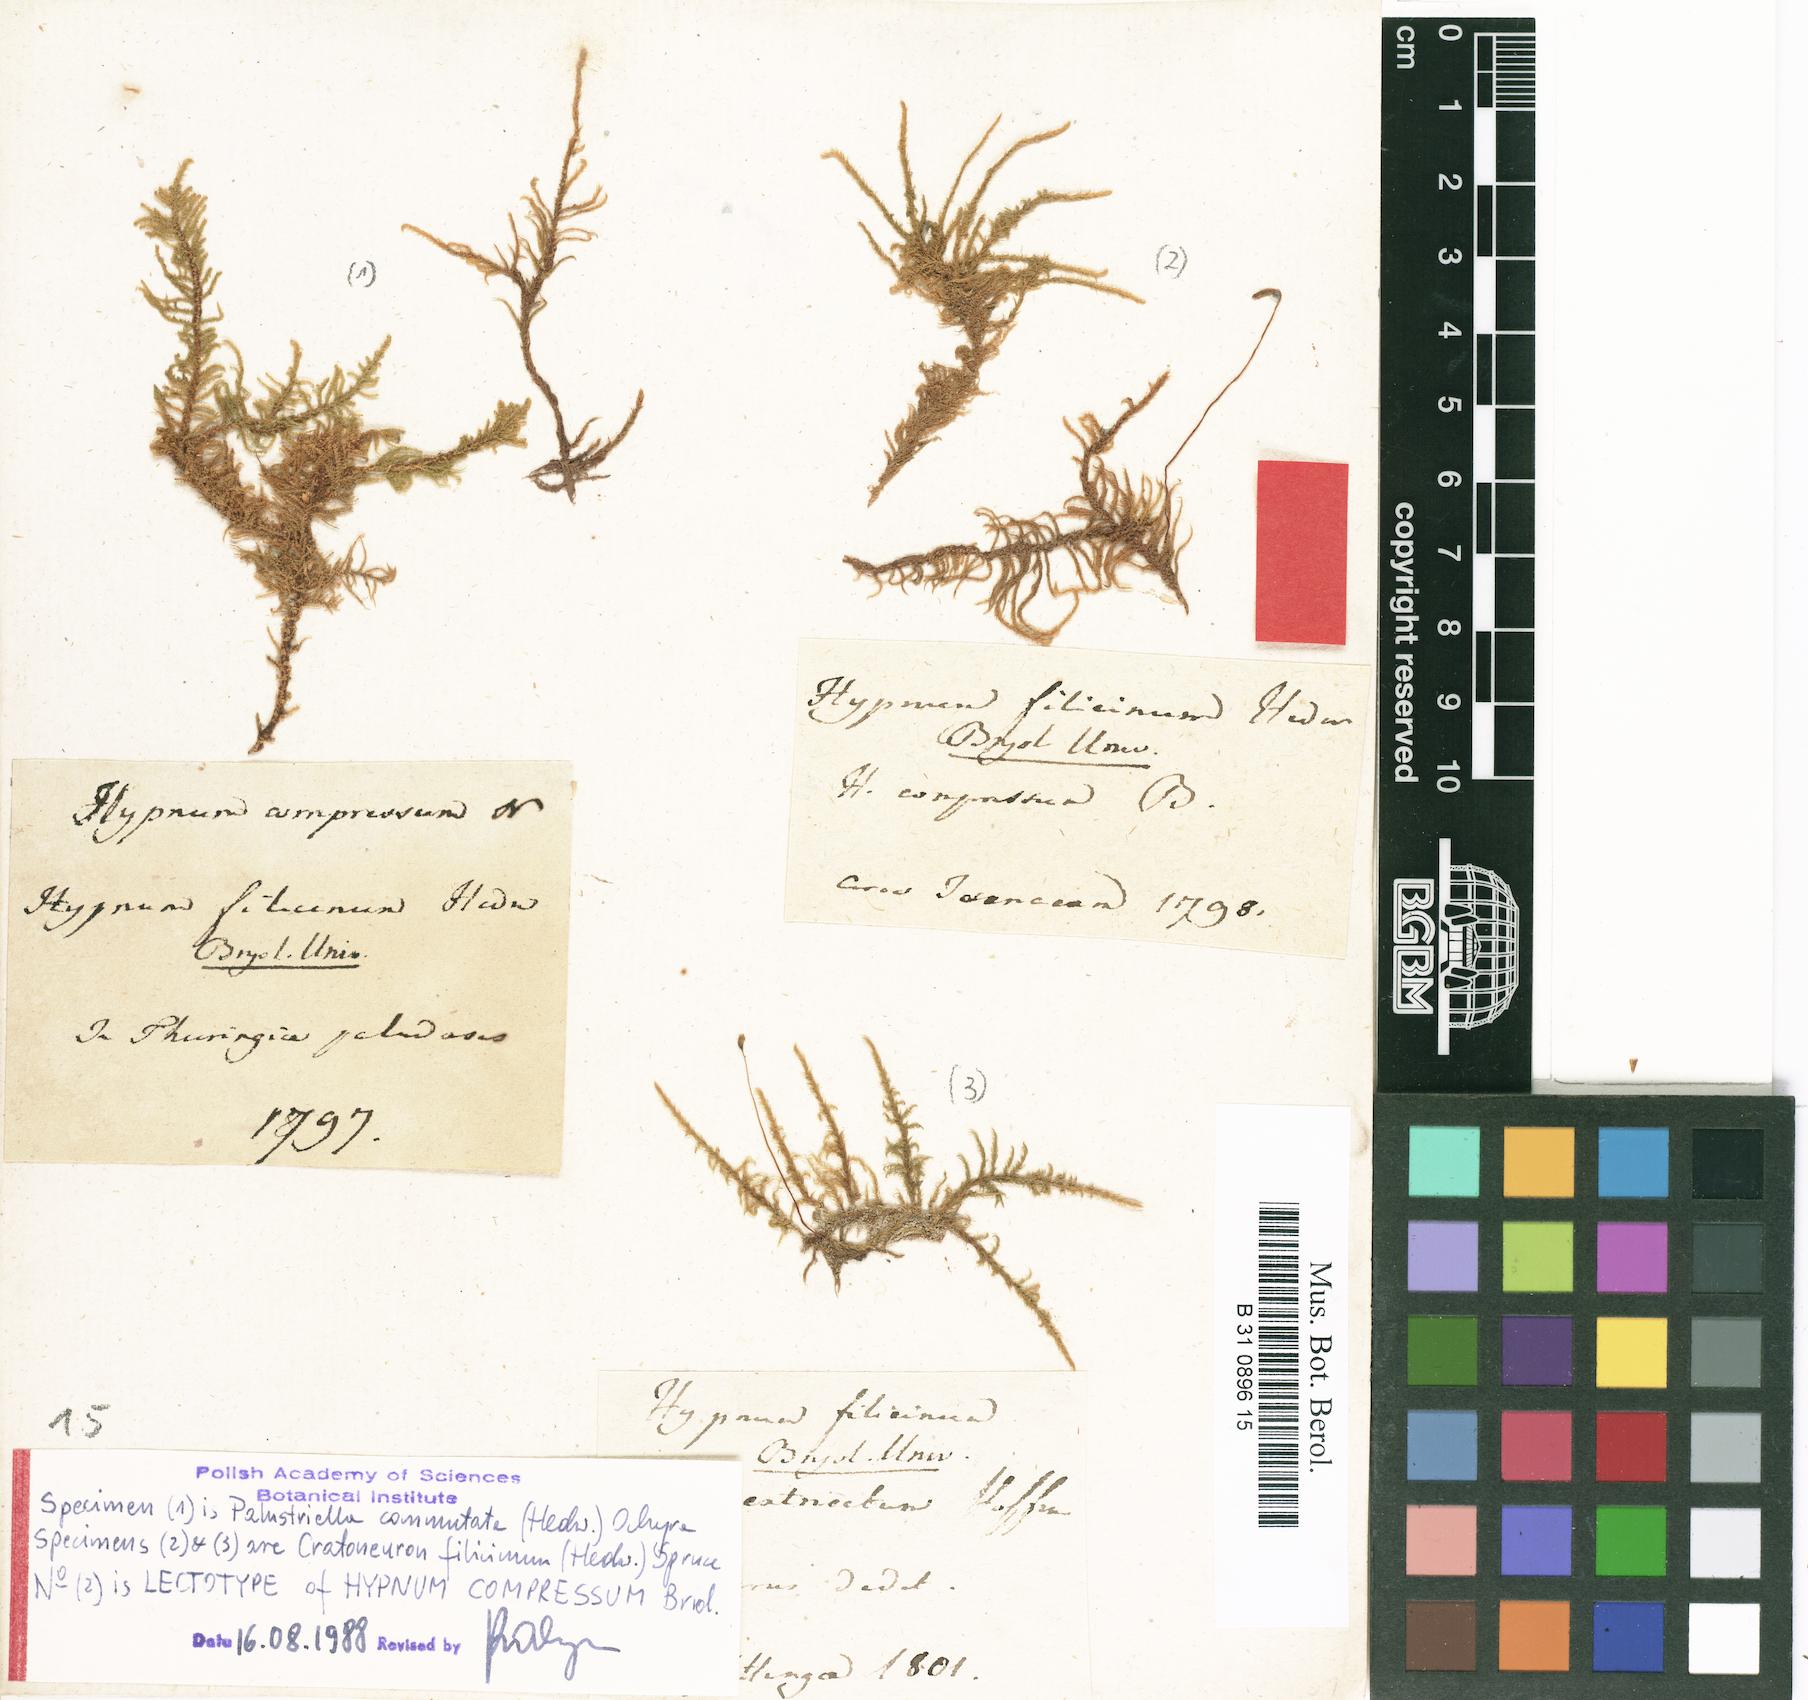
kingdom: Plantae
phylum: Bryophyta
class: Bryopsida
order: Hypnales
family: Amblystegiaceae
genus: Cratoneuron
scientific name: Cratoneuron filicinum
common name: Fern-leaved hook moss
